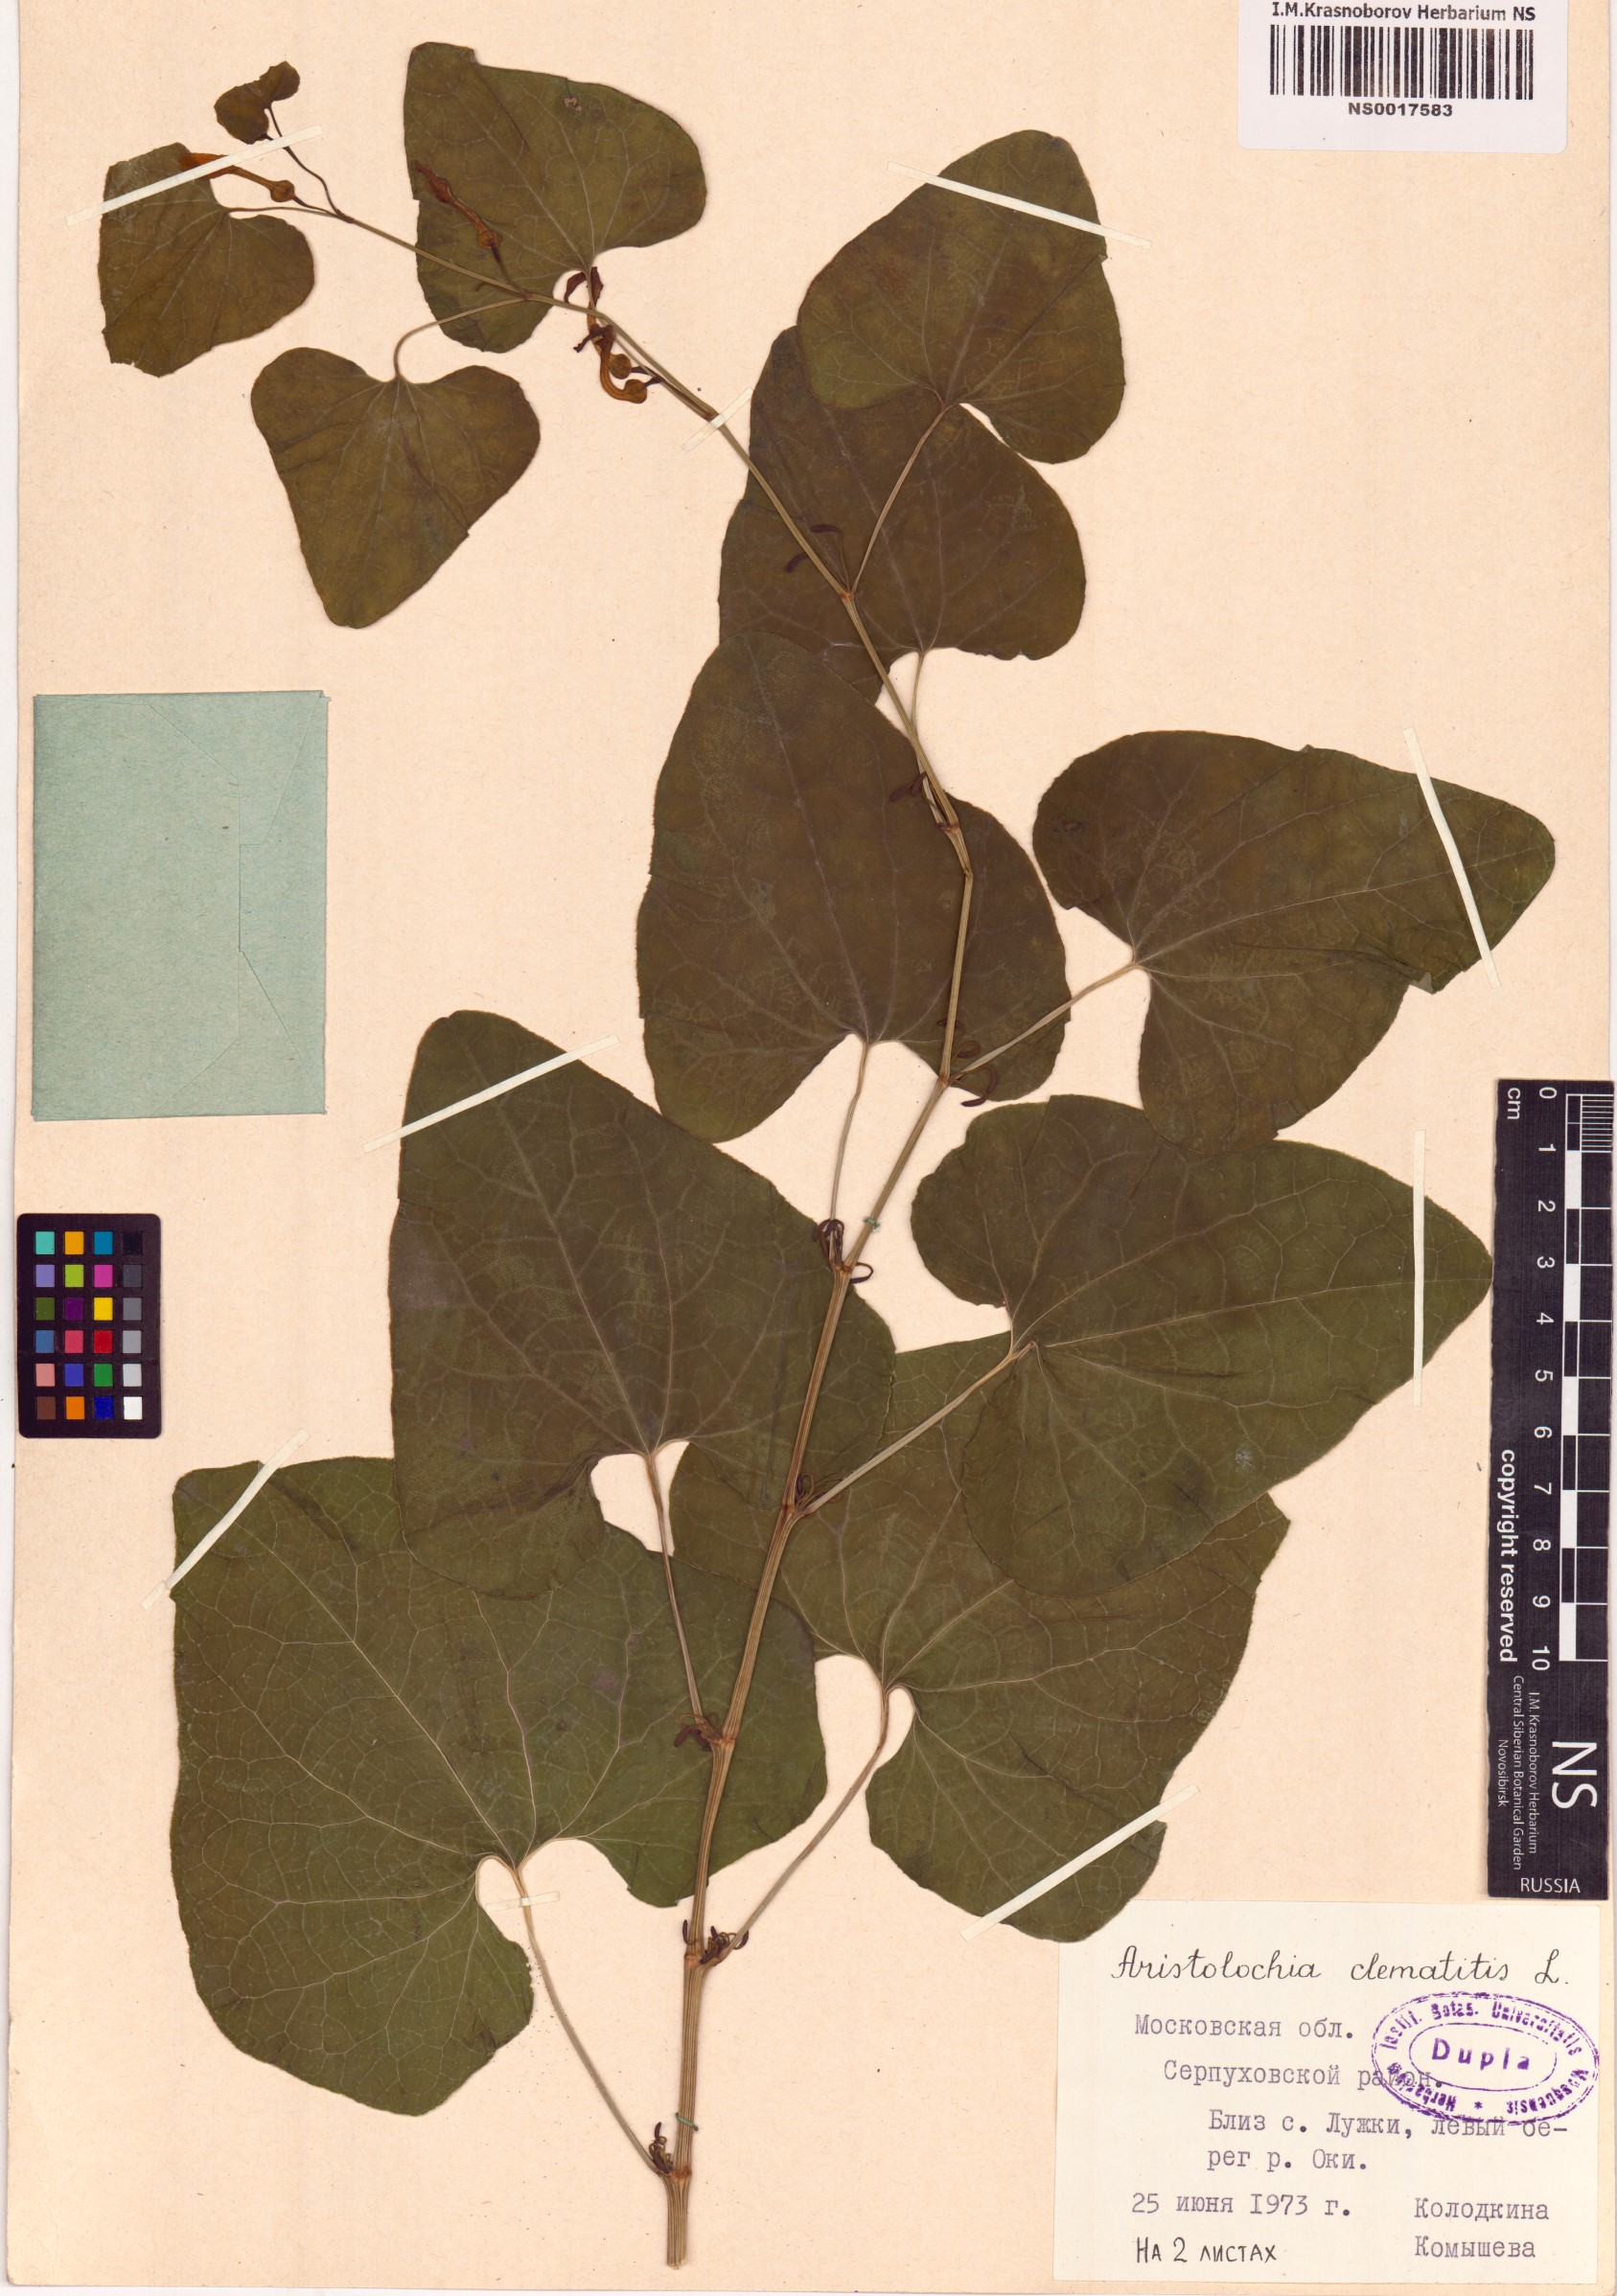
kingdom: Plantae
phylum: Tracheophyta
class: Magnoliopsida
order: Piperales
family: Aristolochiaceae
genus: Aristolochia
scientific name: Aristolochia clematitis
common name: Birthwort
